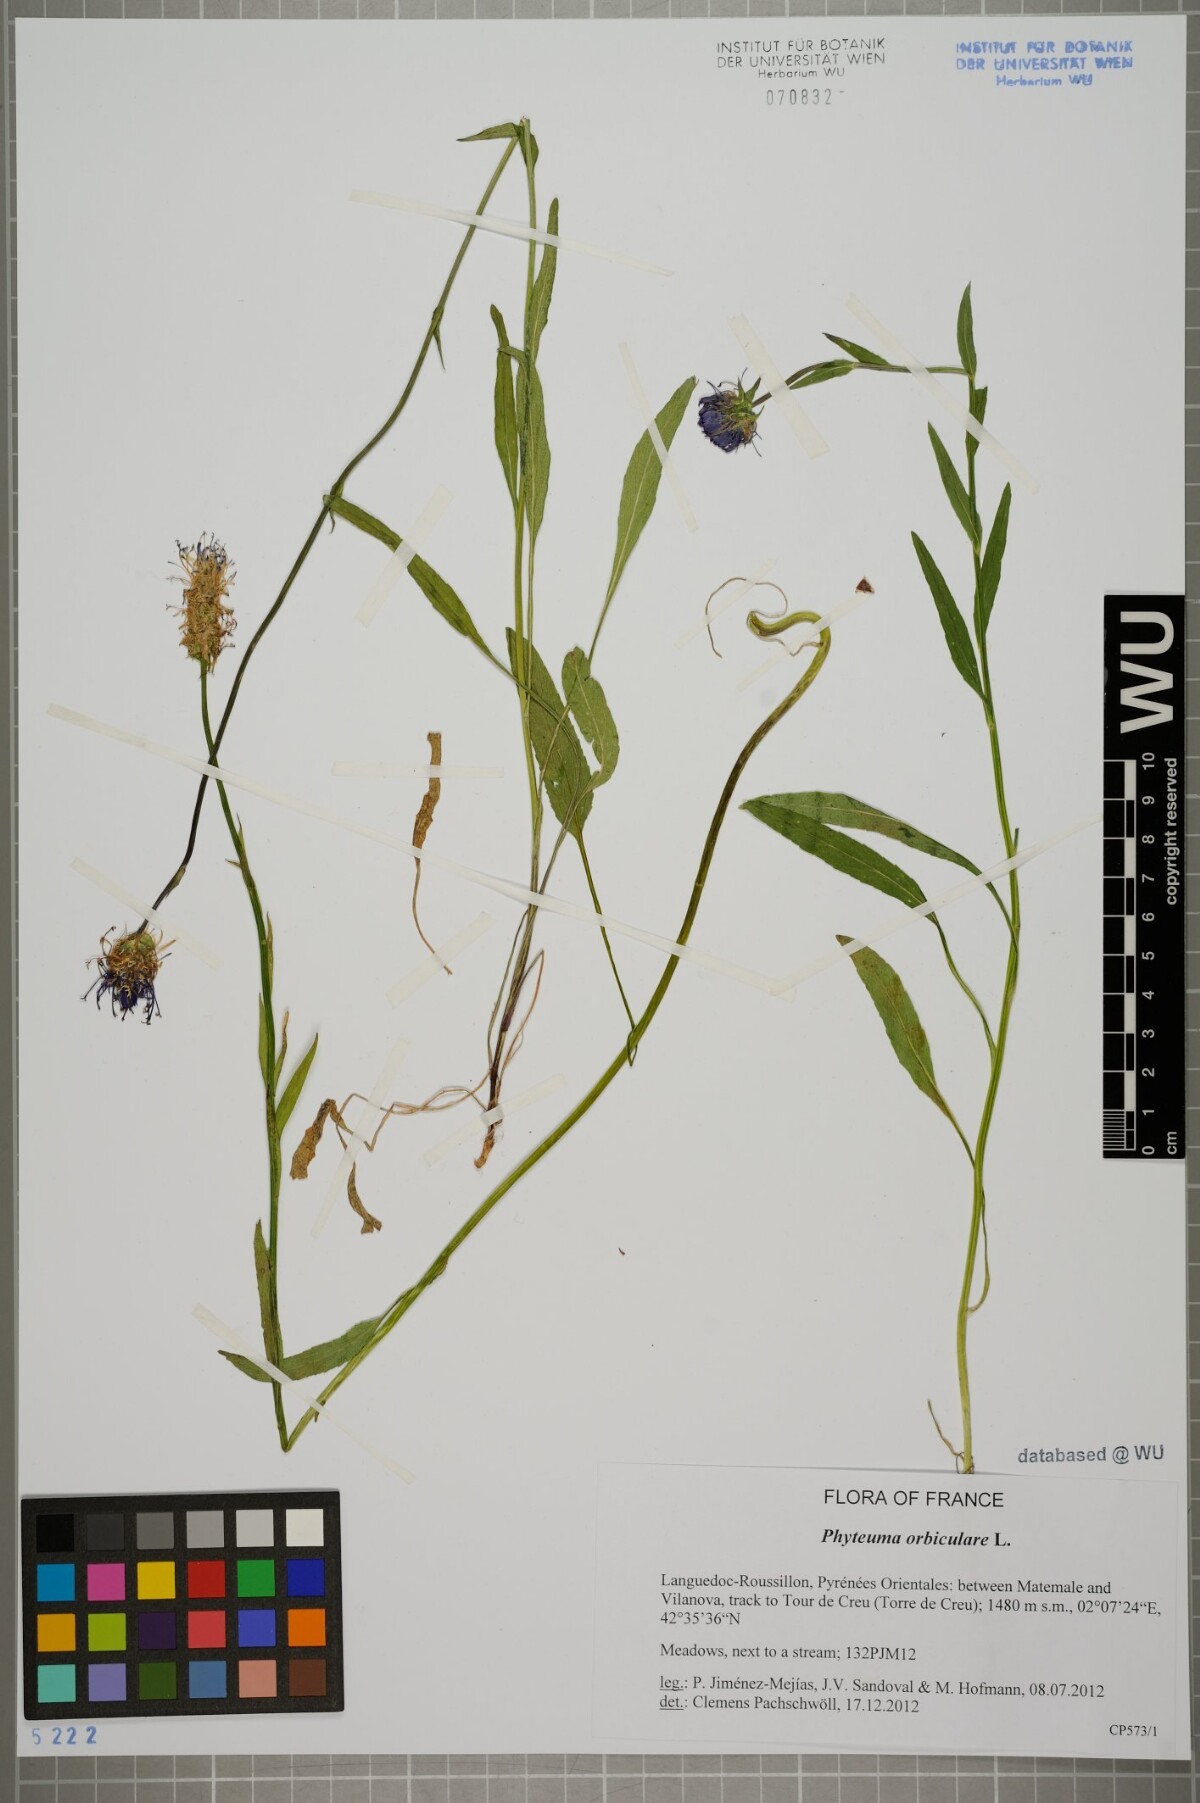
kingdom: Plantae
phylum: Tracheophyta
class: Magnoliopsida
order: Asterales
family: Campanulaceae
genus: Phyteuma
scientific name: Phyteuma orbiculare
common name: Round-headed rampion
